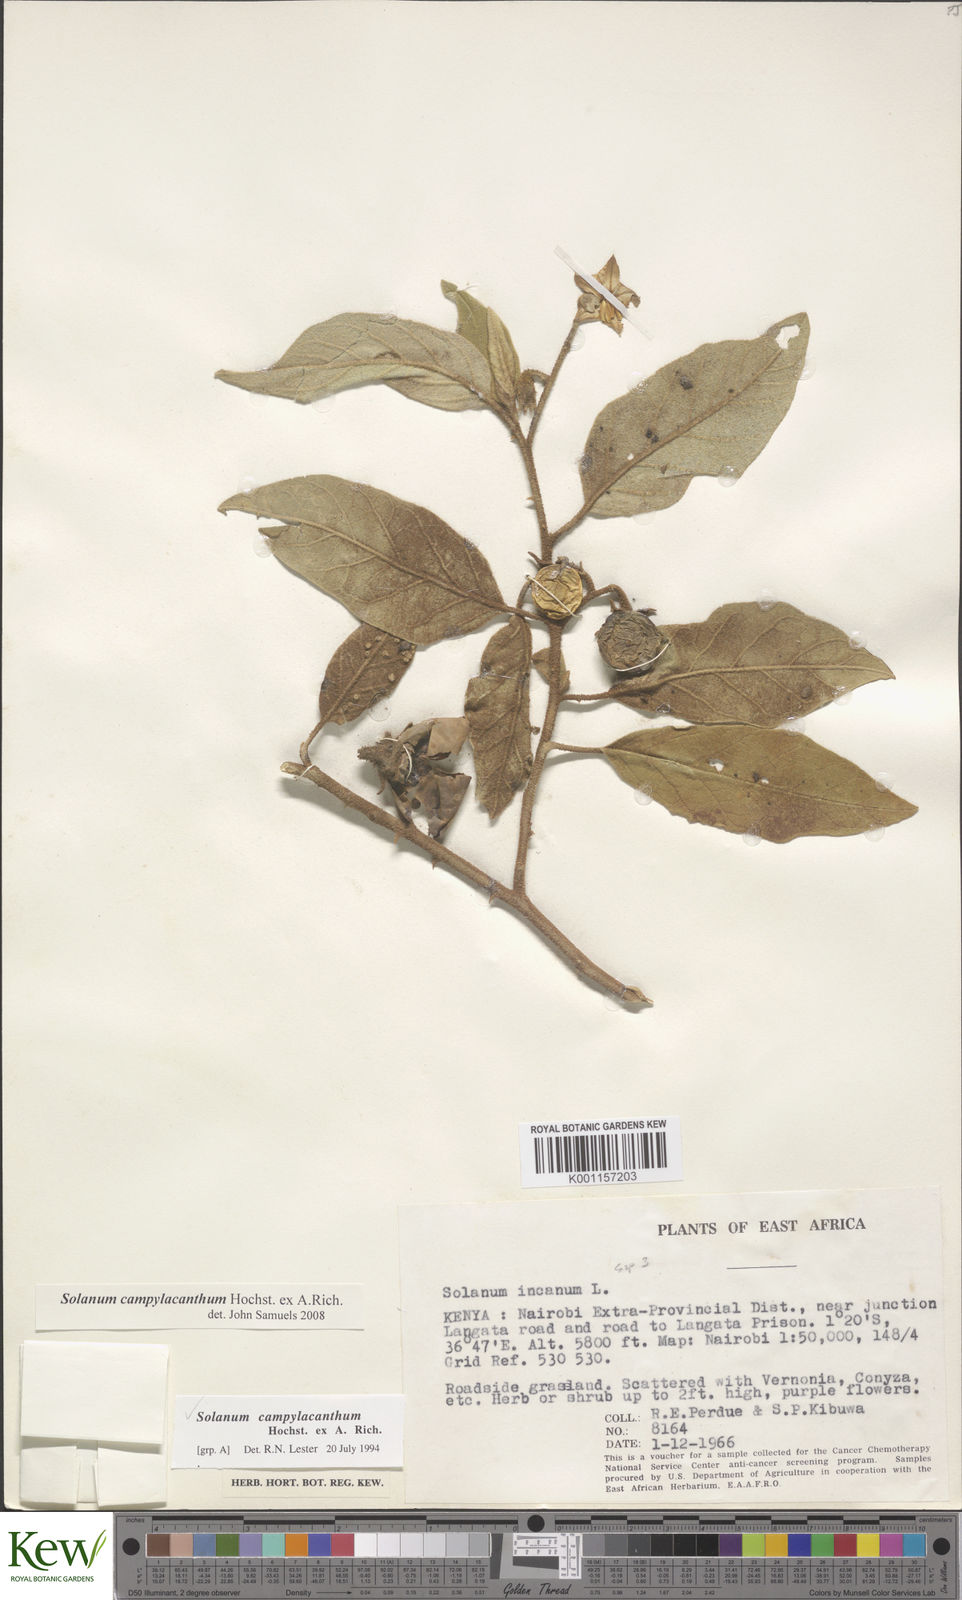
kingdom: Plantae
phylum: Tracheophyta
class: Magnoliopsida
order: Solanales
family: Solanaceae
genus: Solanum
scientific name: Solanum campylacanthum
